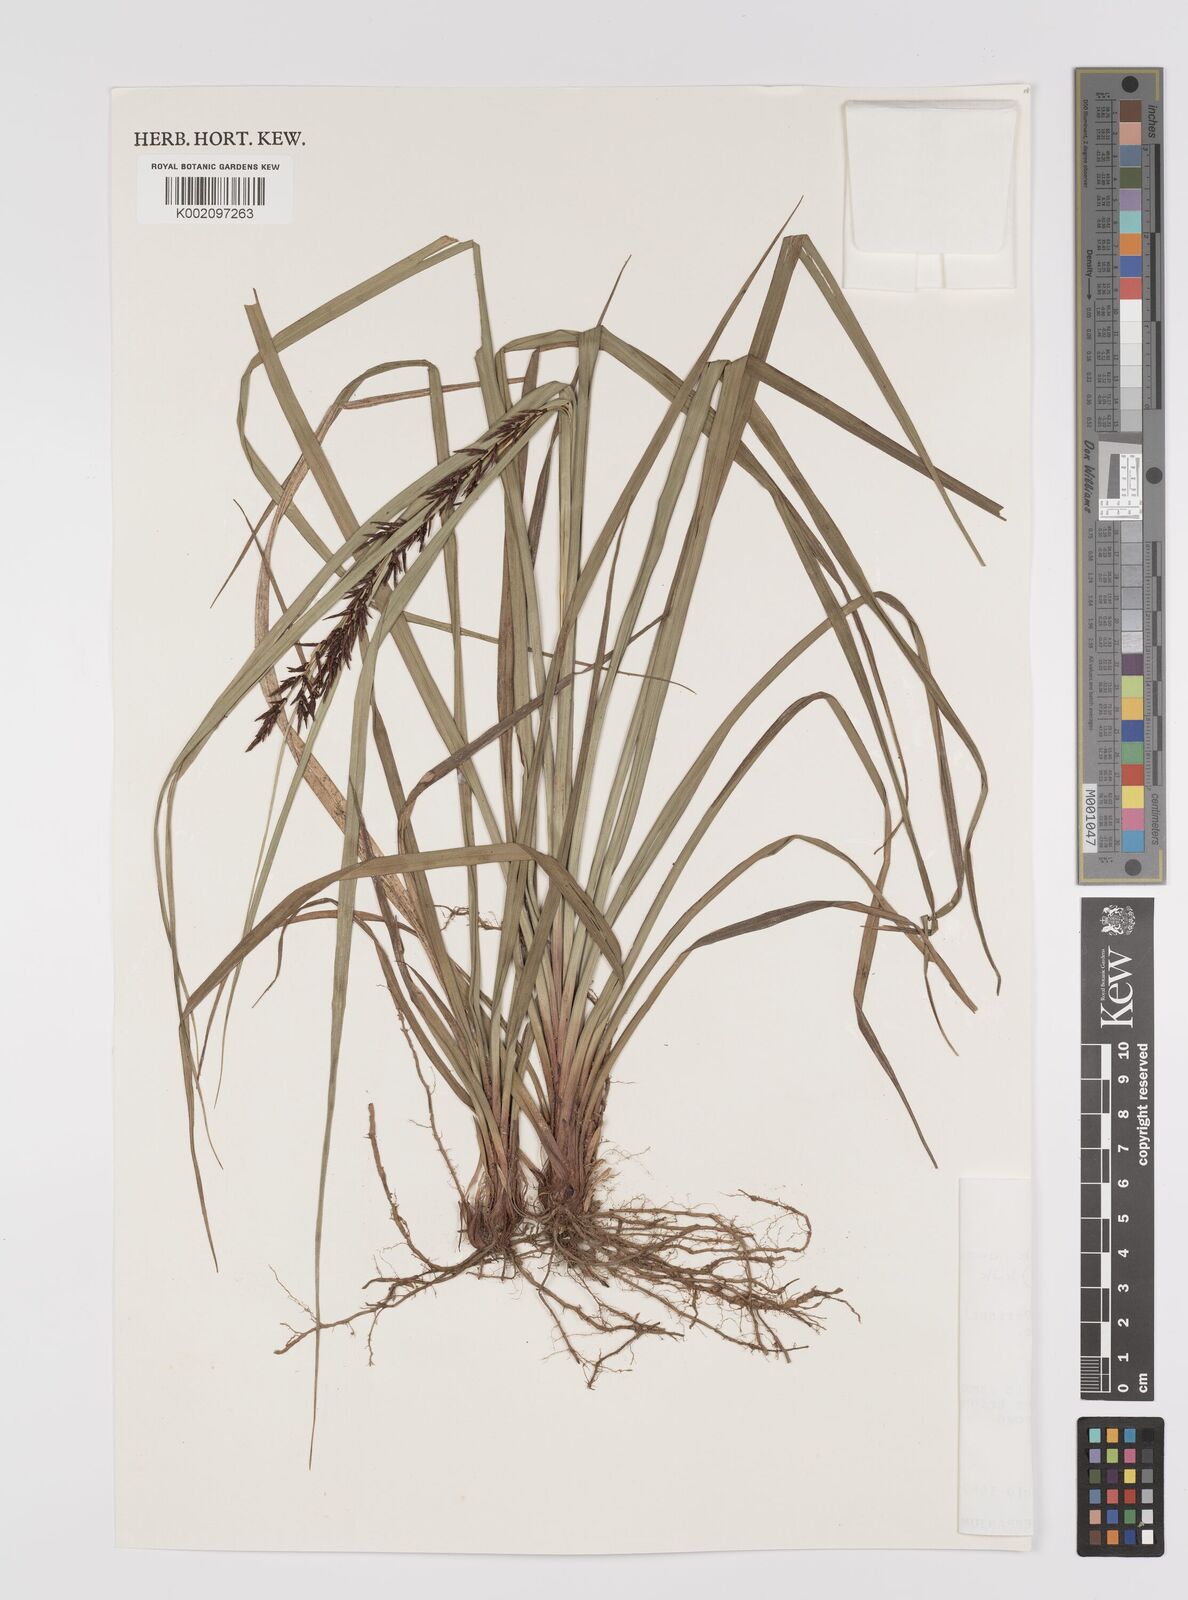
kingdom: Plantae
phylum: Tracheophyta
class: Liliopsida
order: Poales
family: Cyperaceae
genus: Carex
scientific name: Carex renschiana
